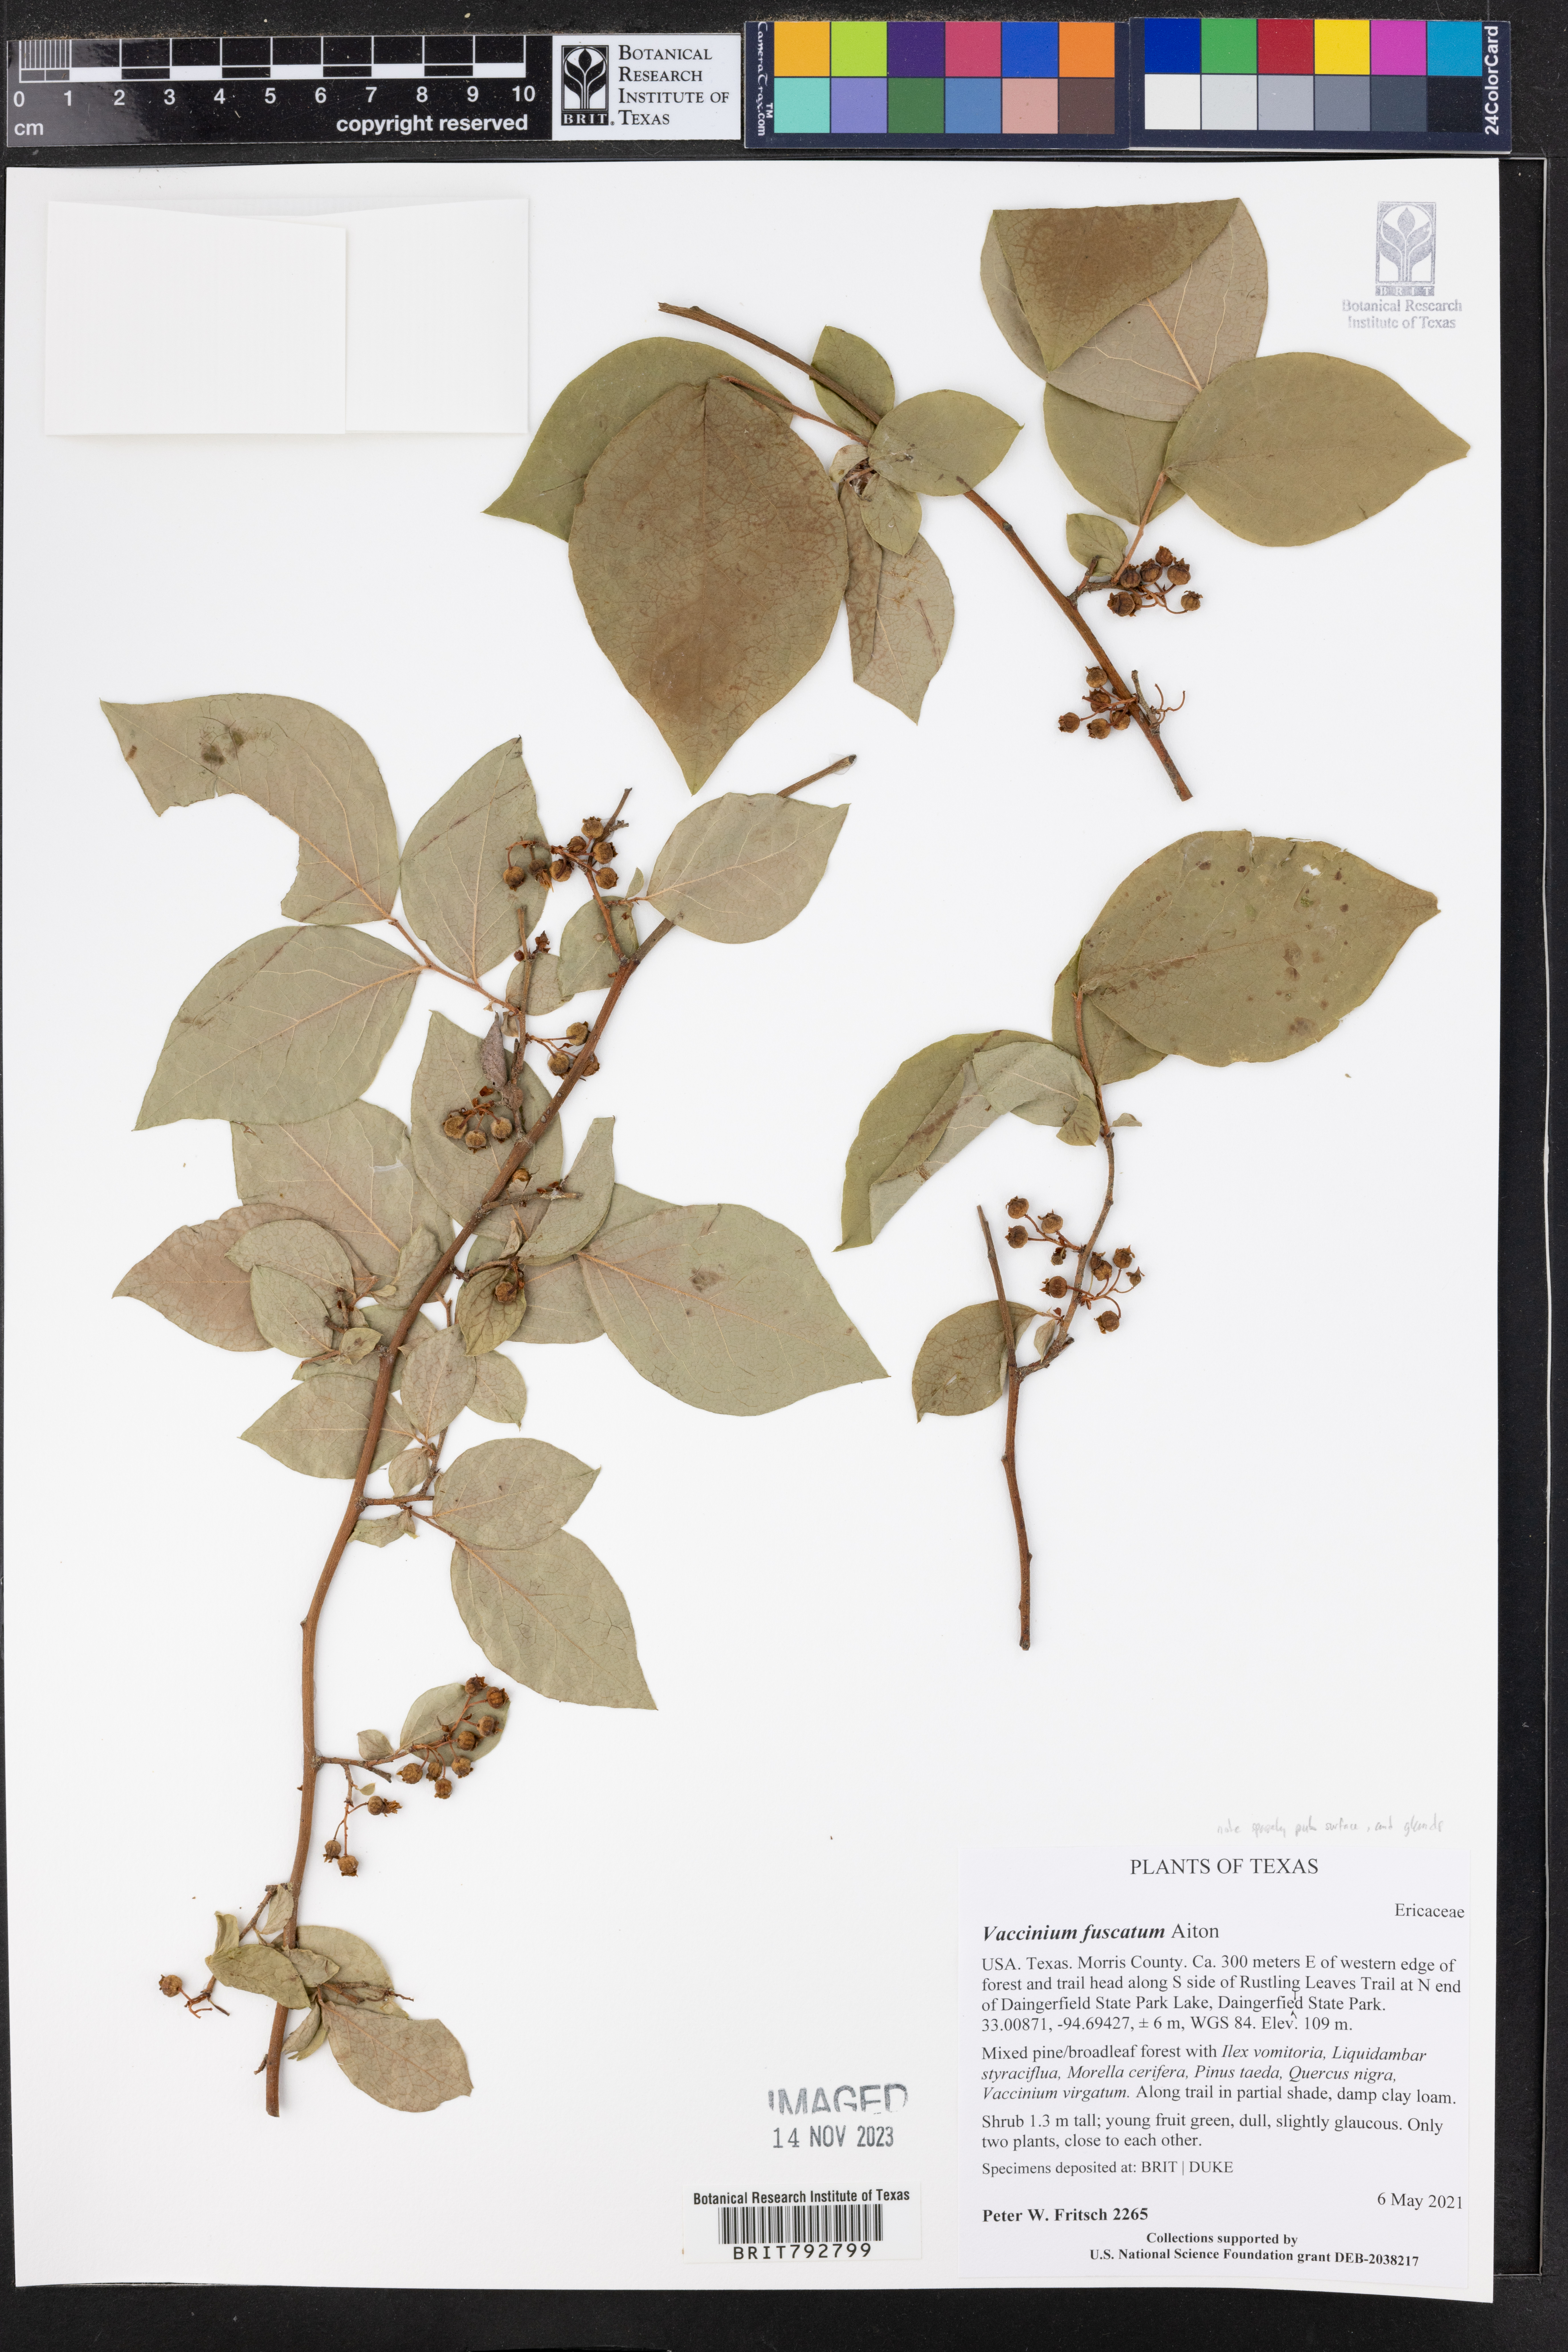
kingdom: Plantae
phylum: Tracheophyta
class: Magnoliopsida
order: Ericales
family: Ericaceae
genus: Vaccinium
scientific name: Vaccinium corymbosum
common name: Blueberry
